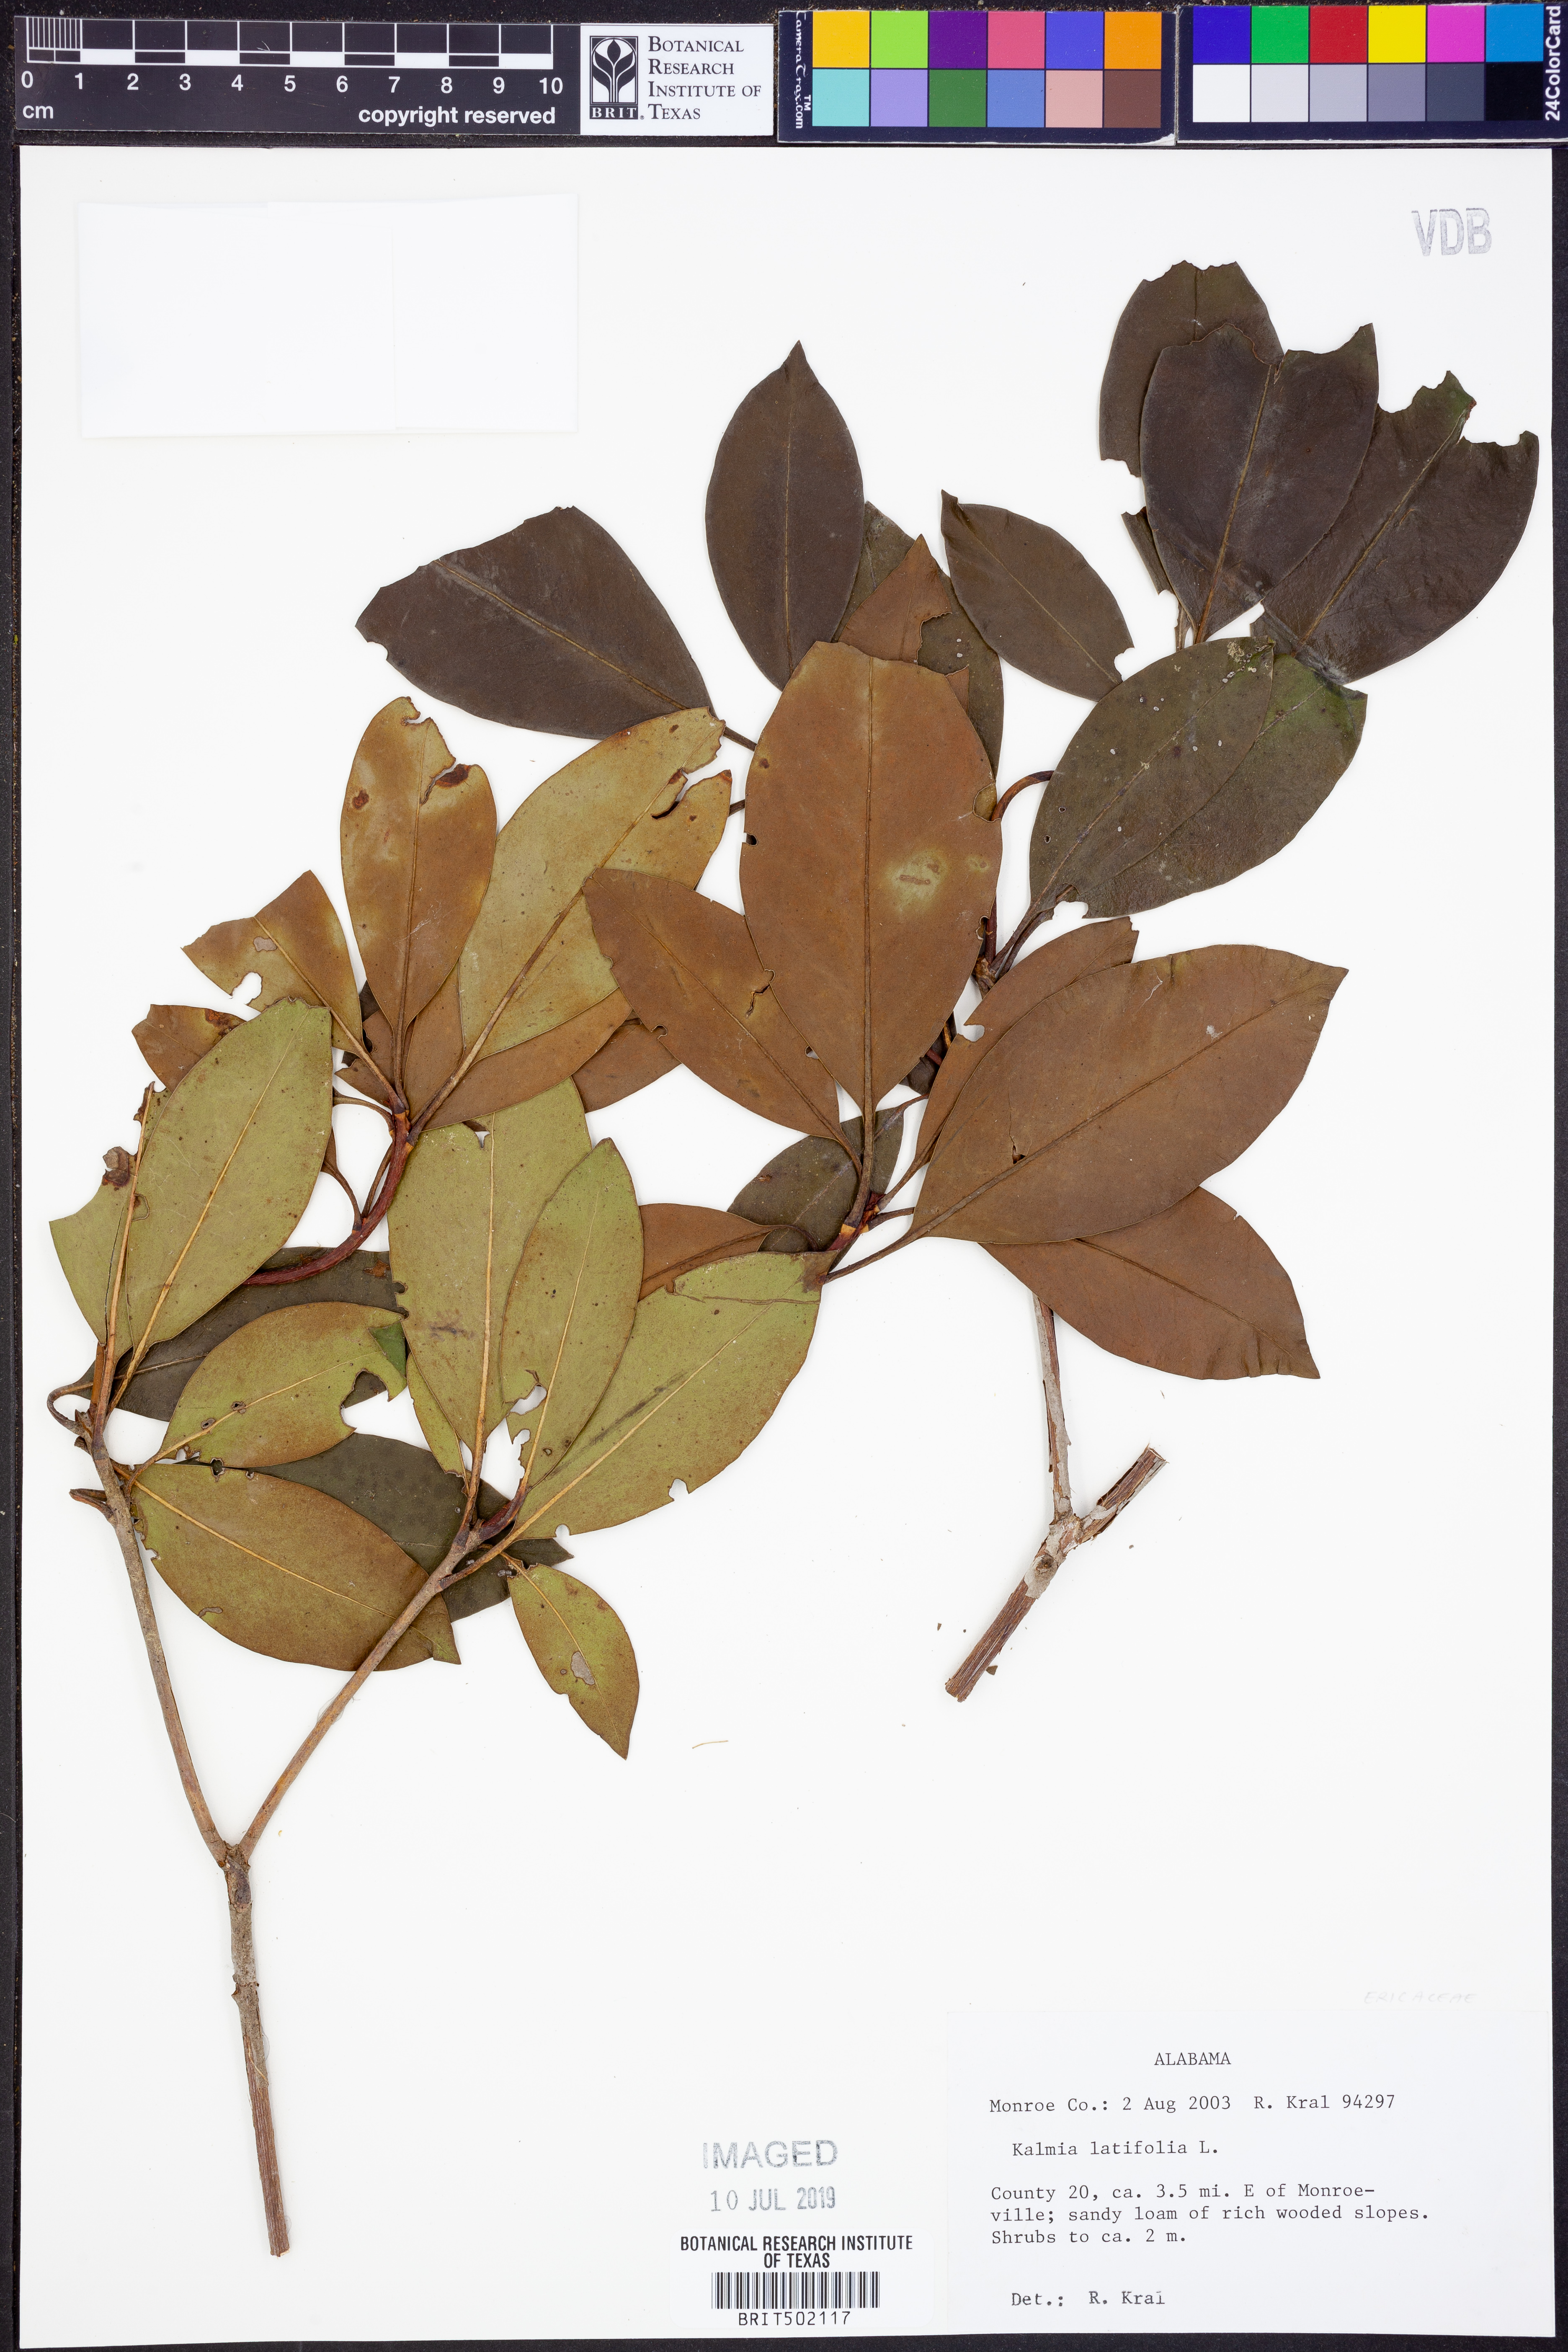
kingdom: Plantae
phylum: Tracheophyta
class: Magnoliopsida
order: Ericales
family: Ericaceae
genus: Kalmia
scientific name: Kalmia latifolia
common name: Mountain-laurel
